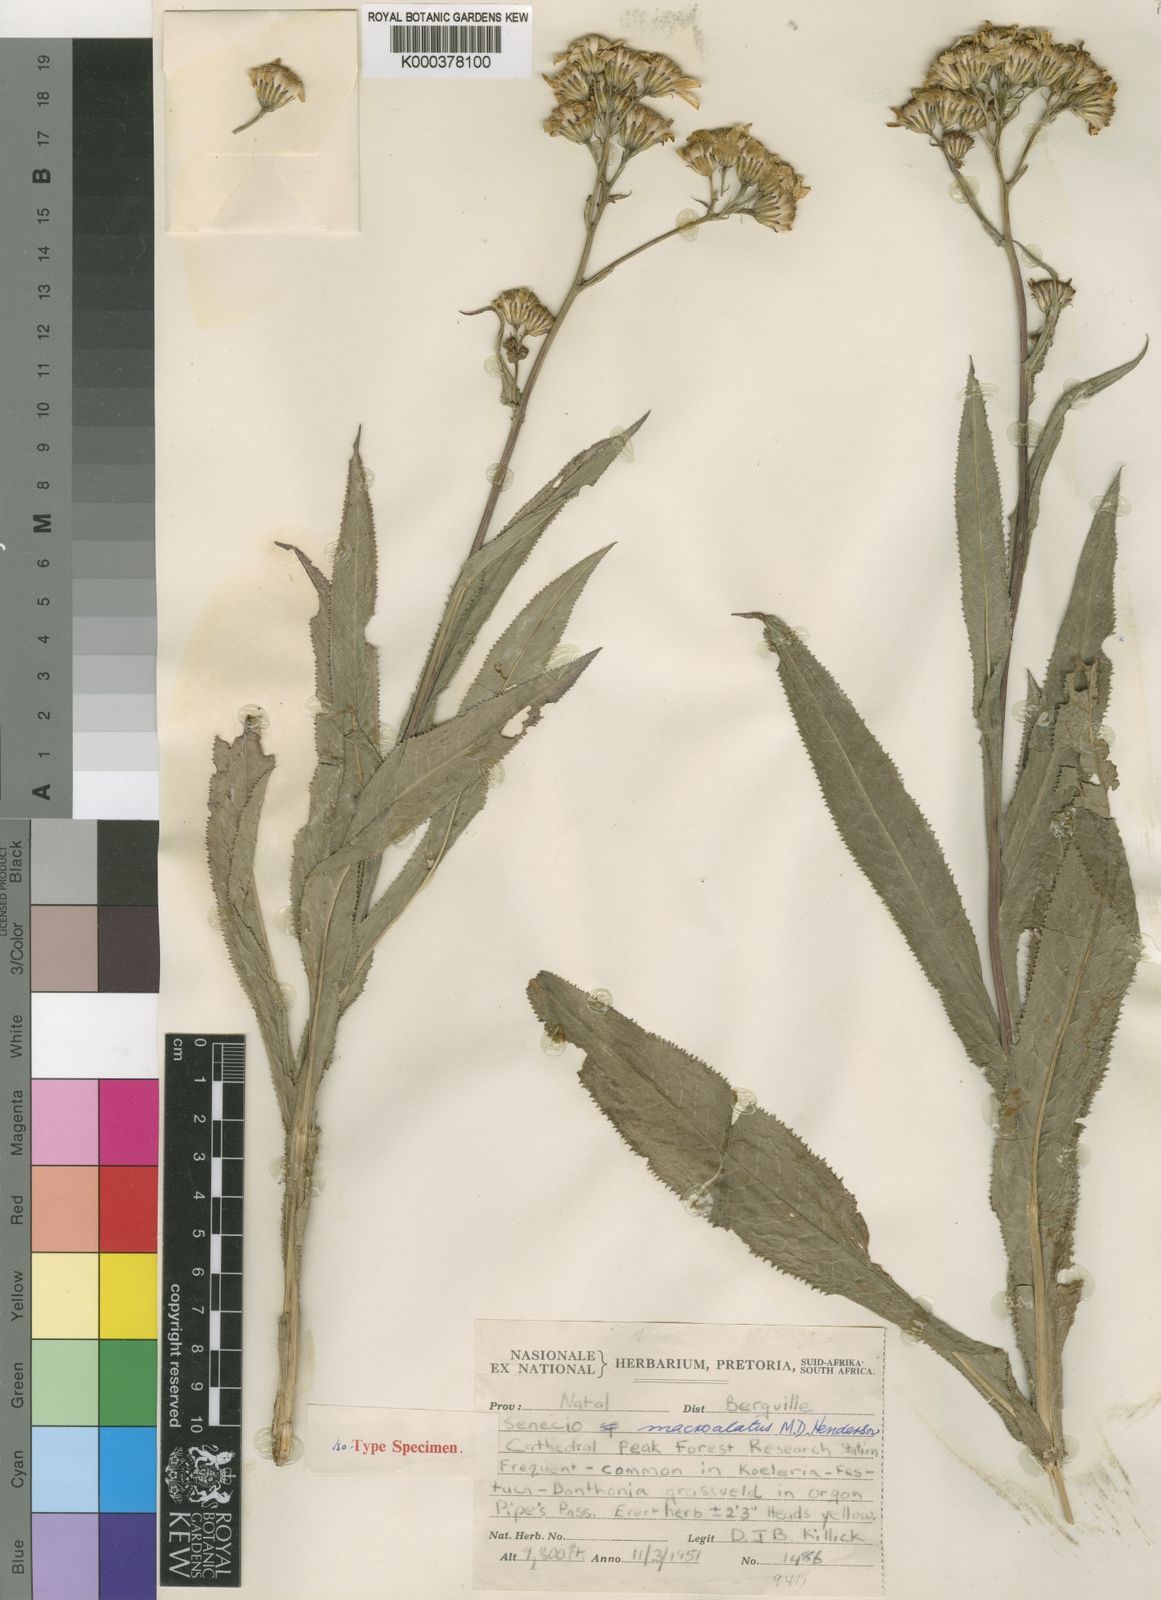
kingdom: Plantae
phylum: Tracheophyta
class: Magnoliopsida
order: Asterales
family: Asteraceae
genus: Senecio
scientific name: Senecio inornatus
